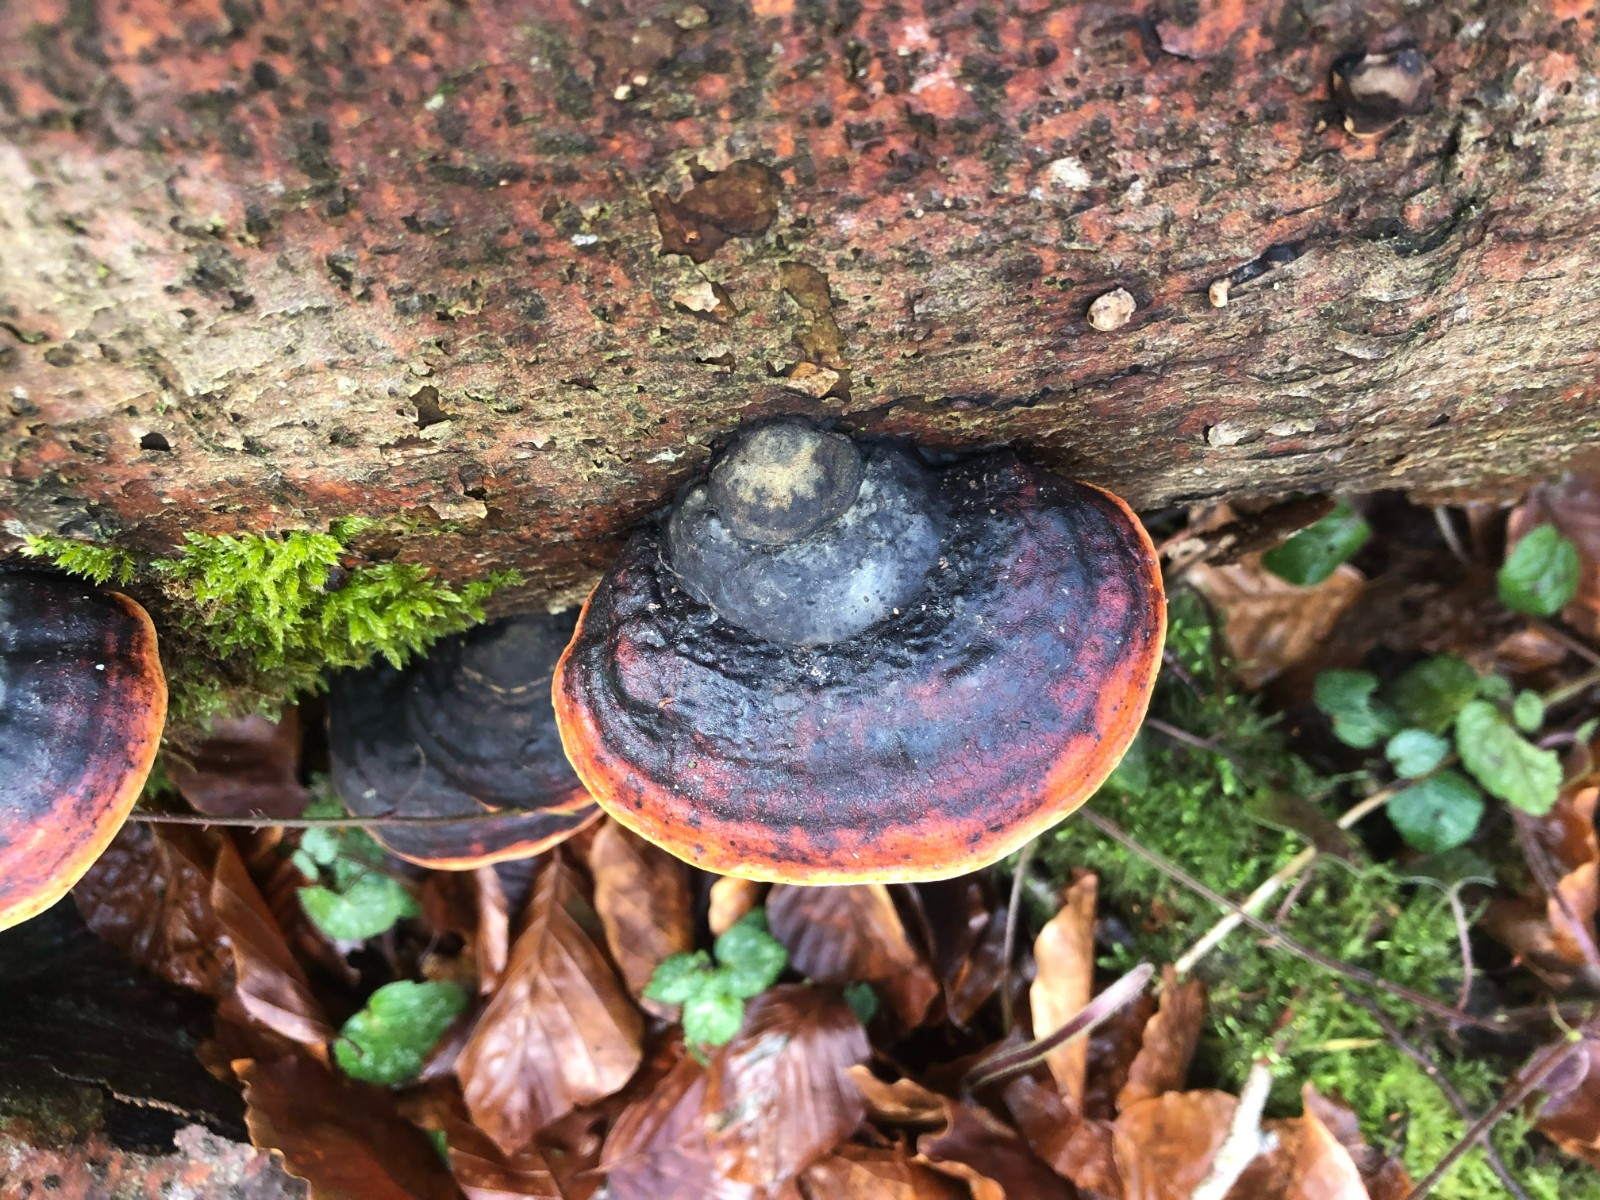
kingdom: Fungi
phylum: Basidiomycota
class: Agaricomycetes
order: Polyporales
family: Fomitopsidaceae
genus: Fomitopsis
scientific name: Fomitopsis pinicola
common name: randbæltet hovporesvamp
